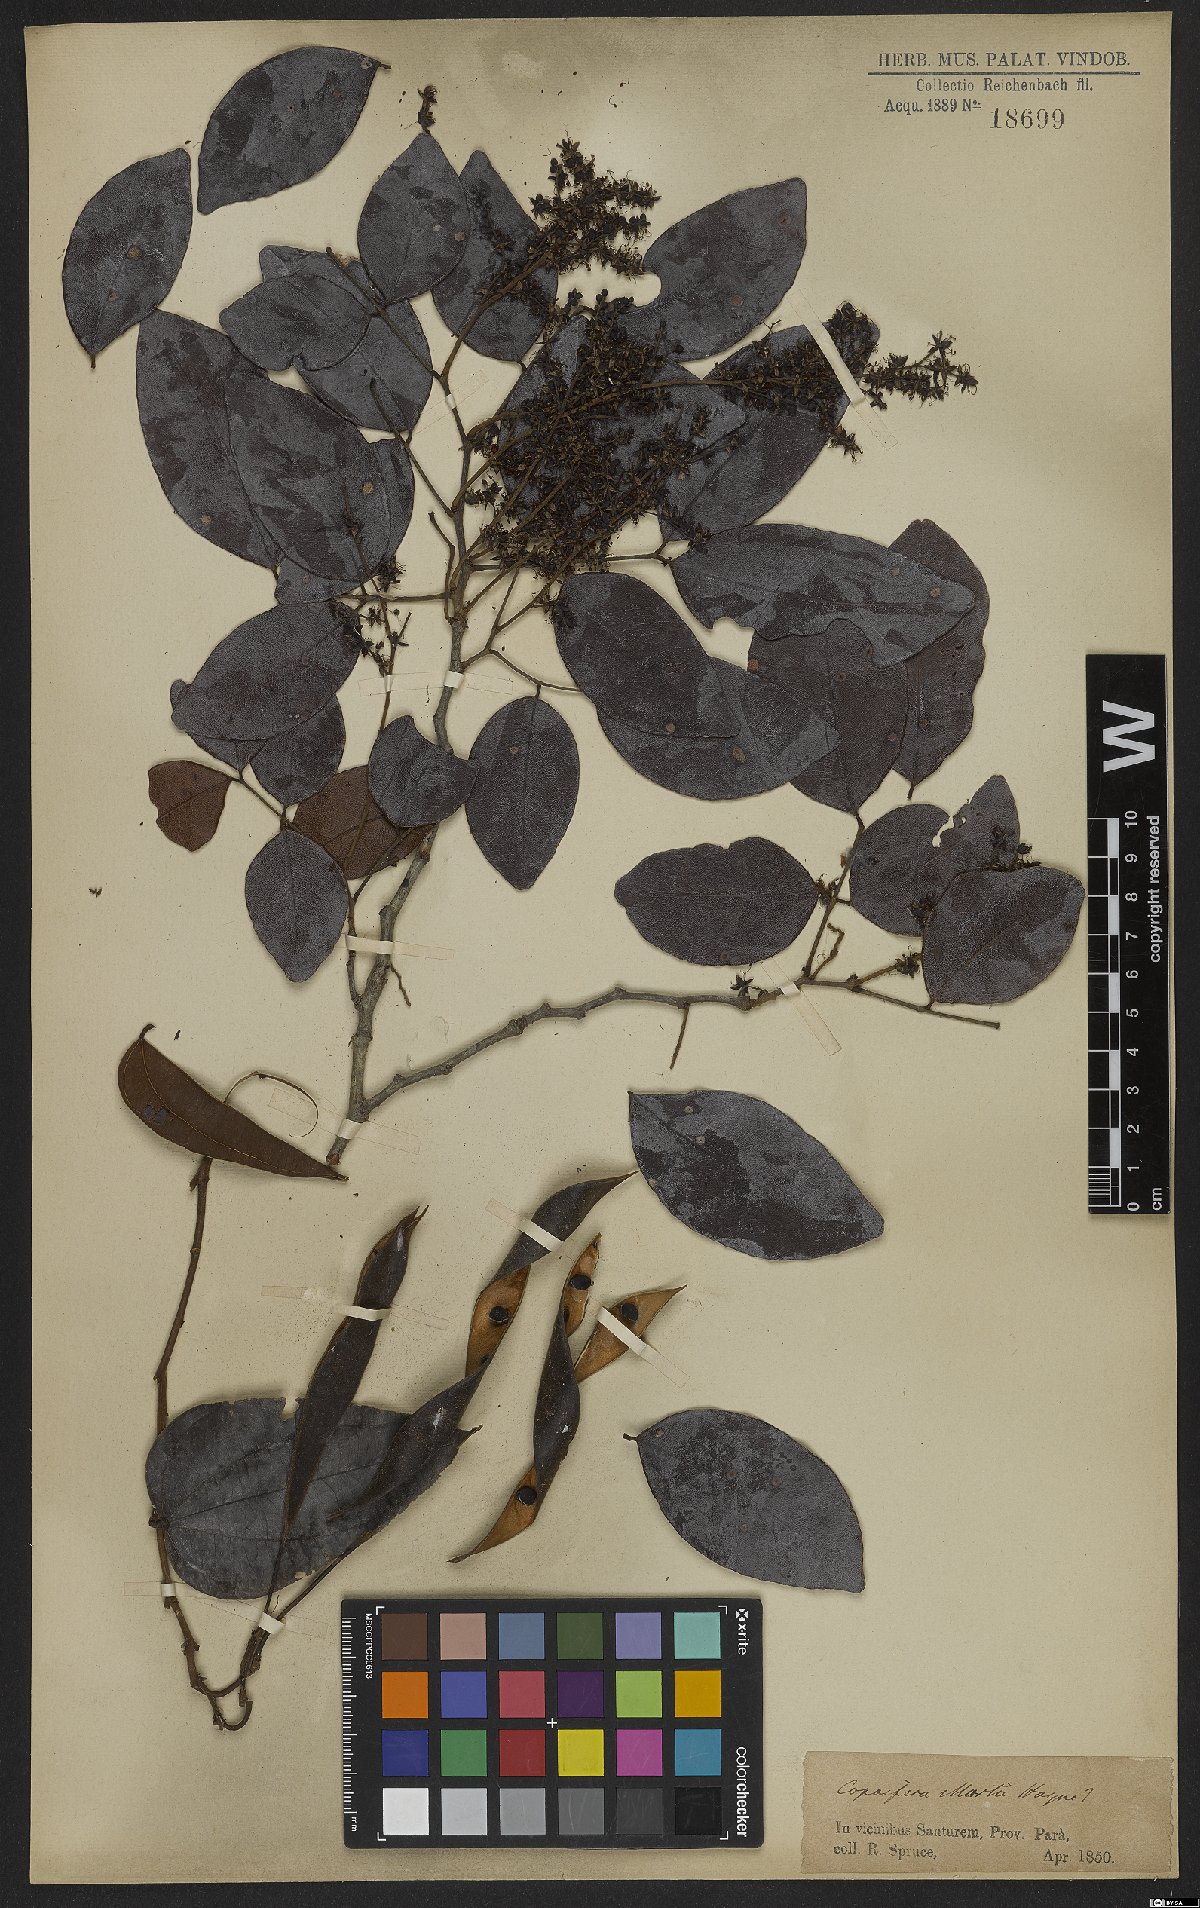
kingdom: Plantae
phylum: Tracheophyta
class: Magnoliopsida
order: Fabales
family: Fabaceae
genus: Copaifera
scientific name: Copaifera martii
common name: Copaiba
